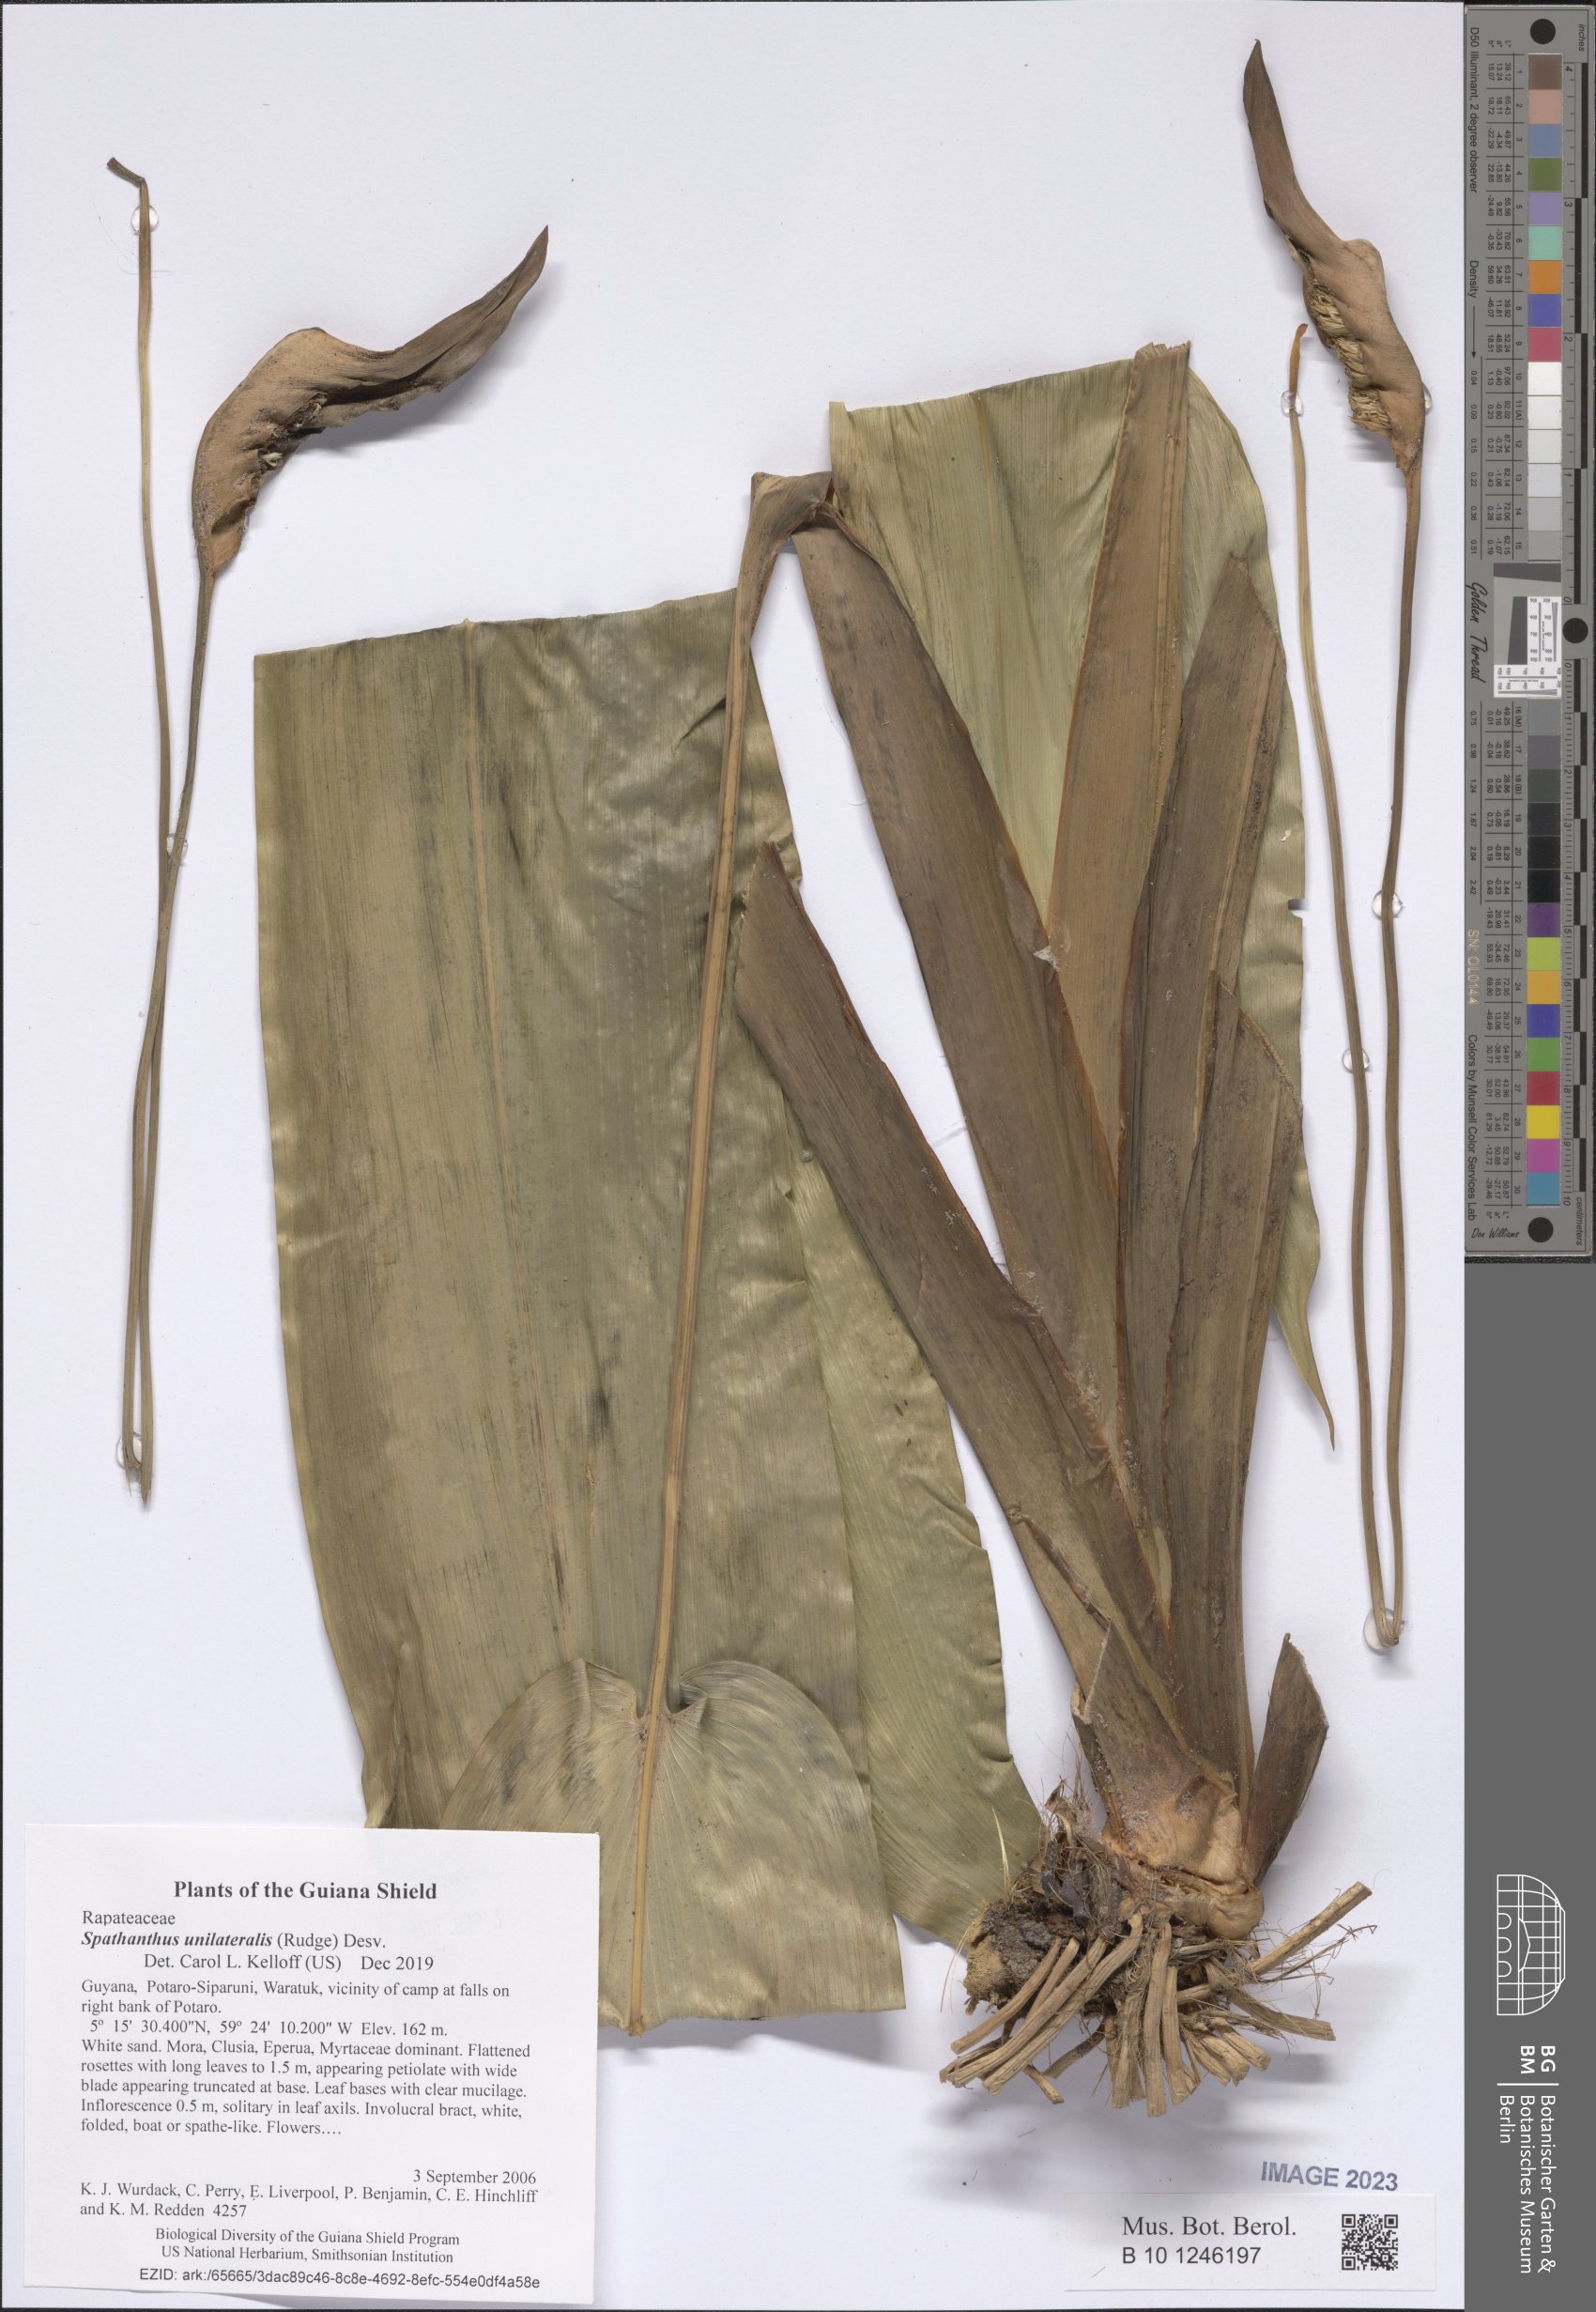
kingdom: Plantae
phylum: Tracheophyta
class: Liliopsida
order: Poales
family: Rapateaceae
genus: Spathanthus
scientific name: Spathanthus unilateralis
